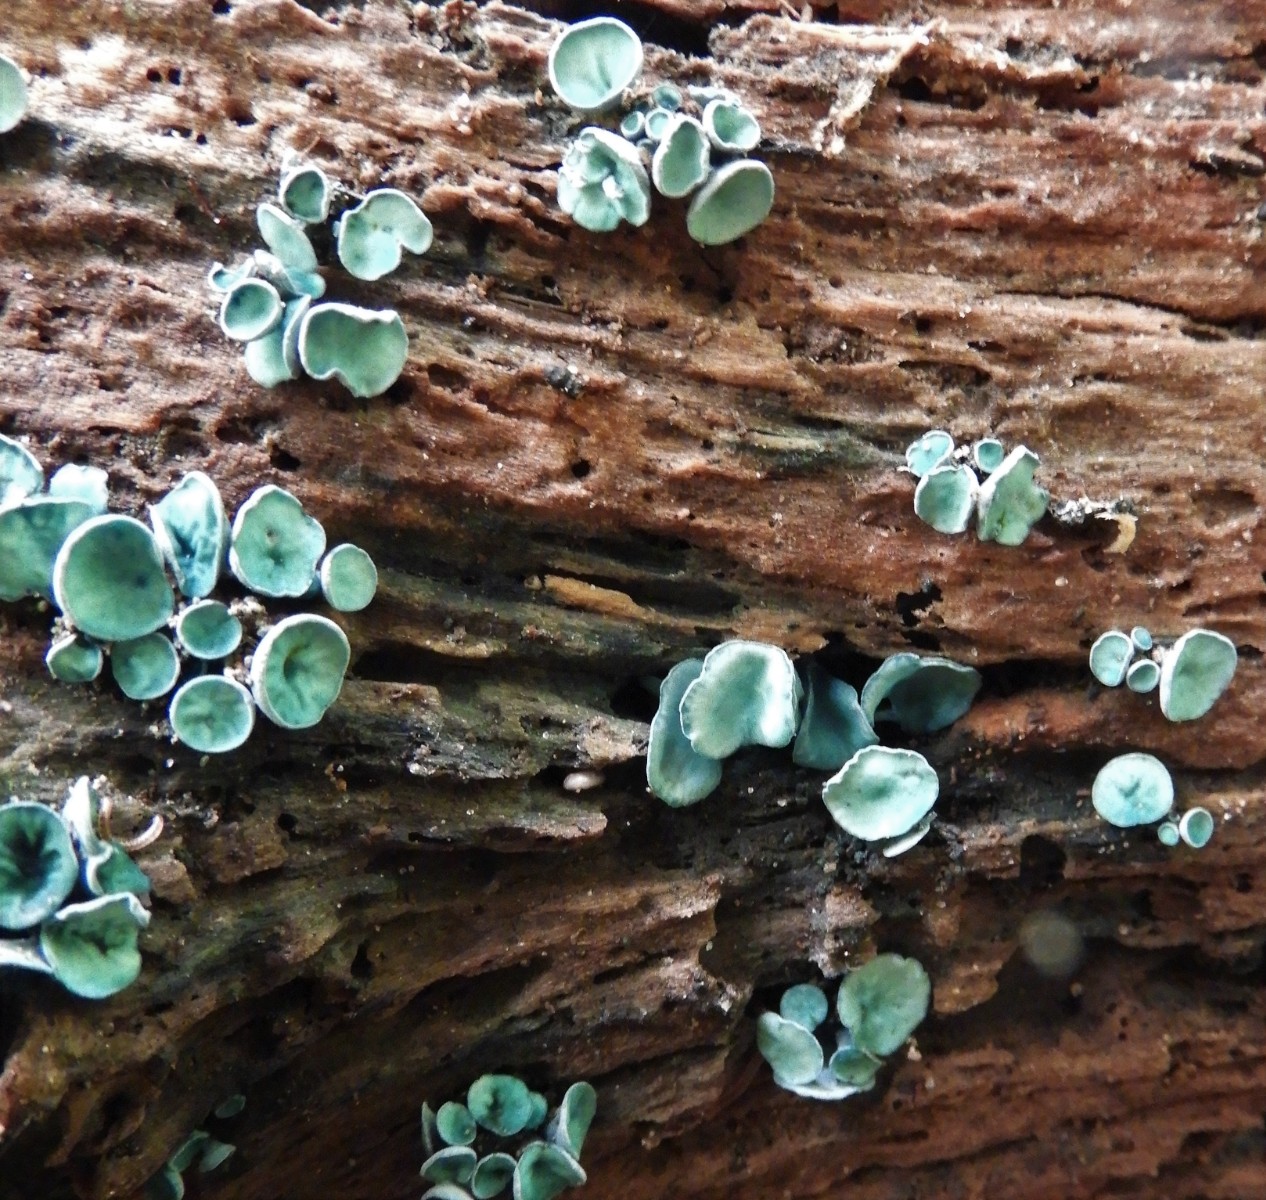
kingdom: Fungi
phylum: Ascomycota
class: Leotiomycetes
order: Helotiales
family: Chlorociboriaceae
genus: Chlorociboria
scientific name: Chlorociboria aeruginascens
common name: almindelig grønskive
